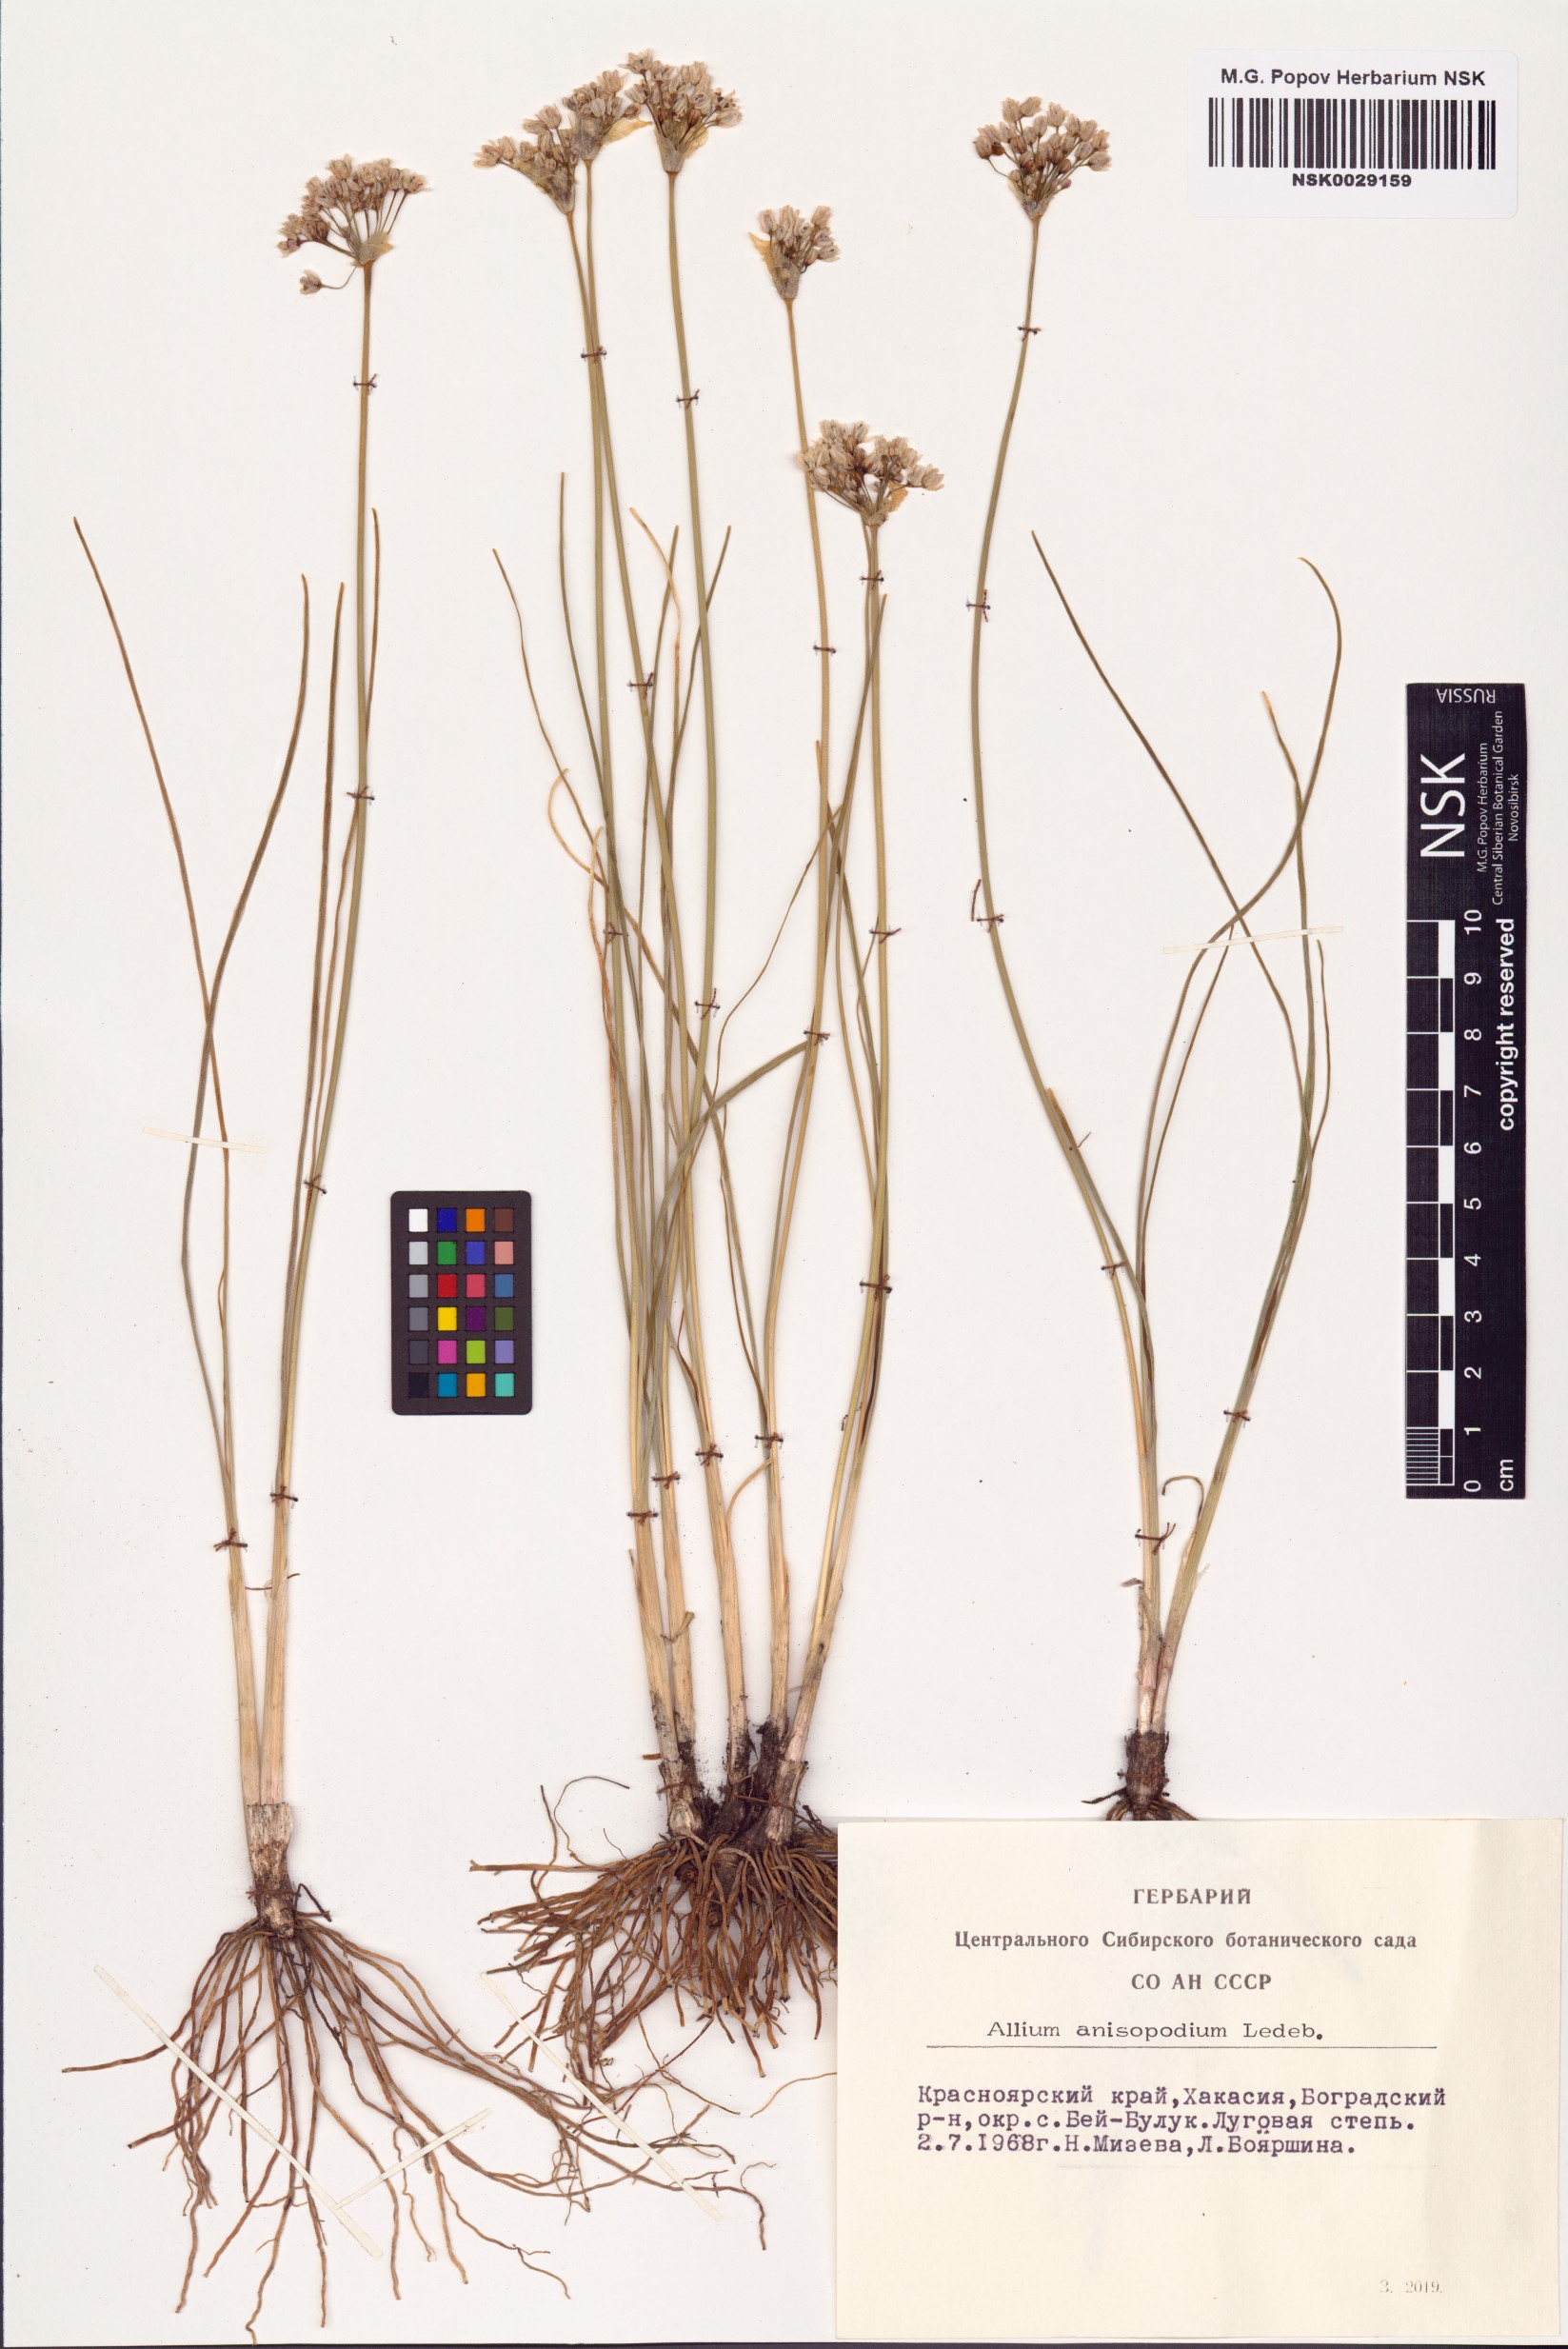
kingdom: Plantae
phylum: Tracheophyta
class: Liliopsida
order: Asparagales
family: Amaryllidaceae
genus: Allium
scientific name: Allium anisopodium
